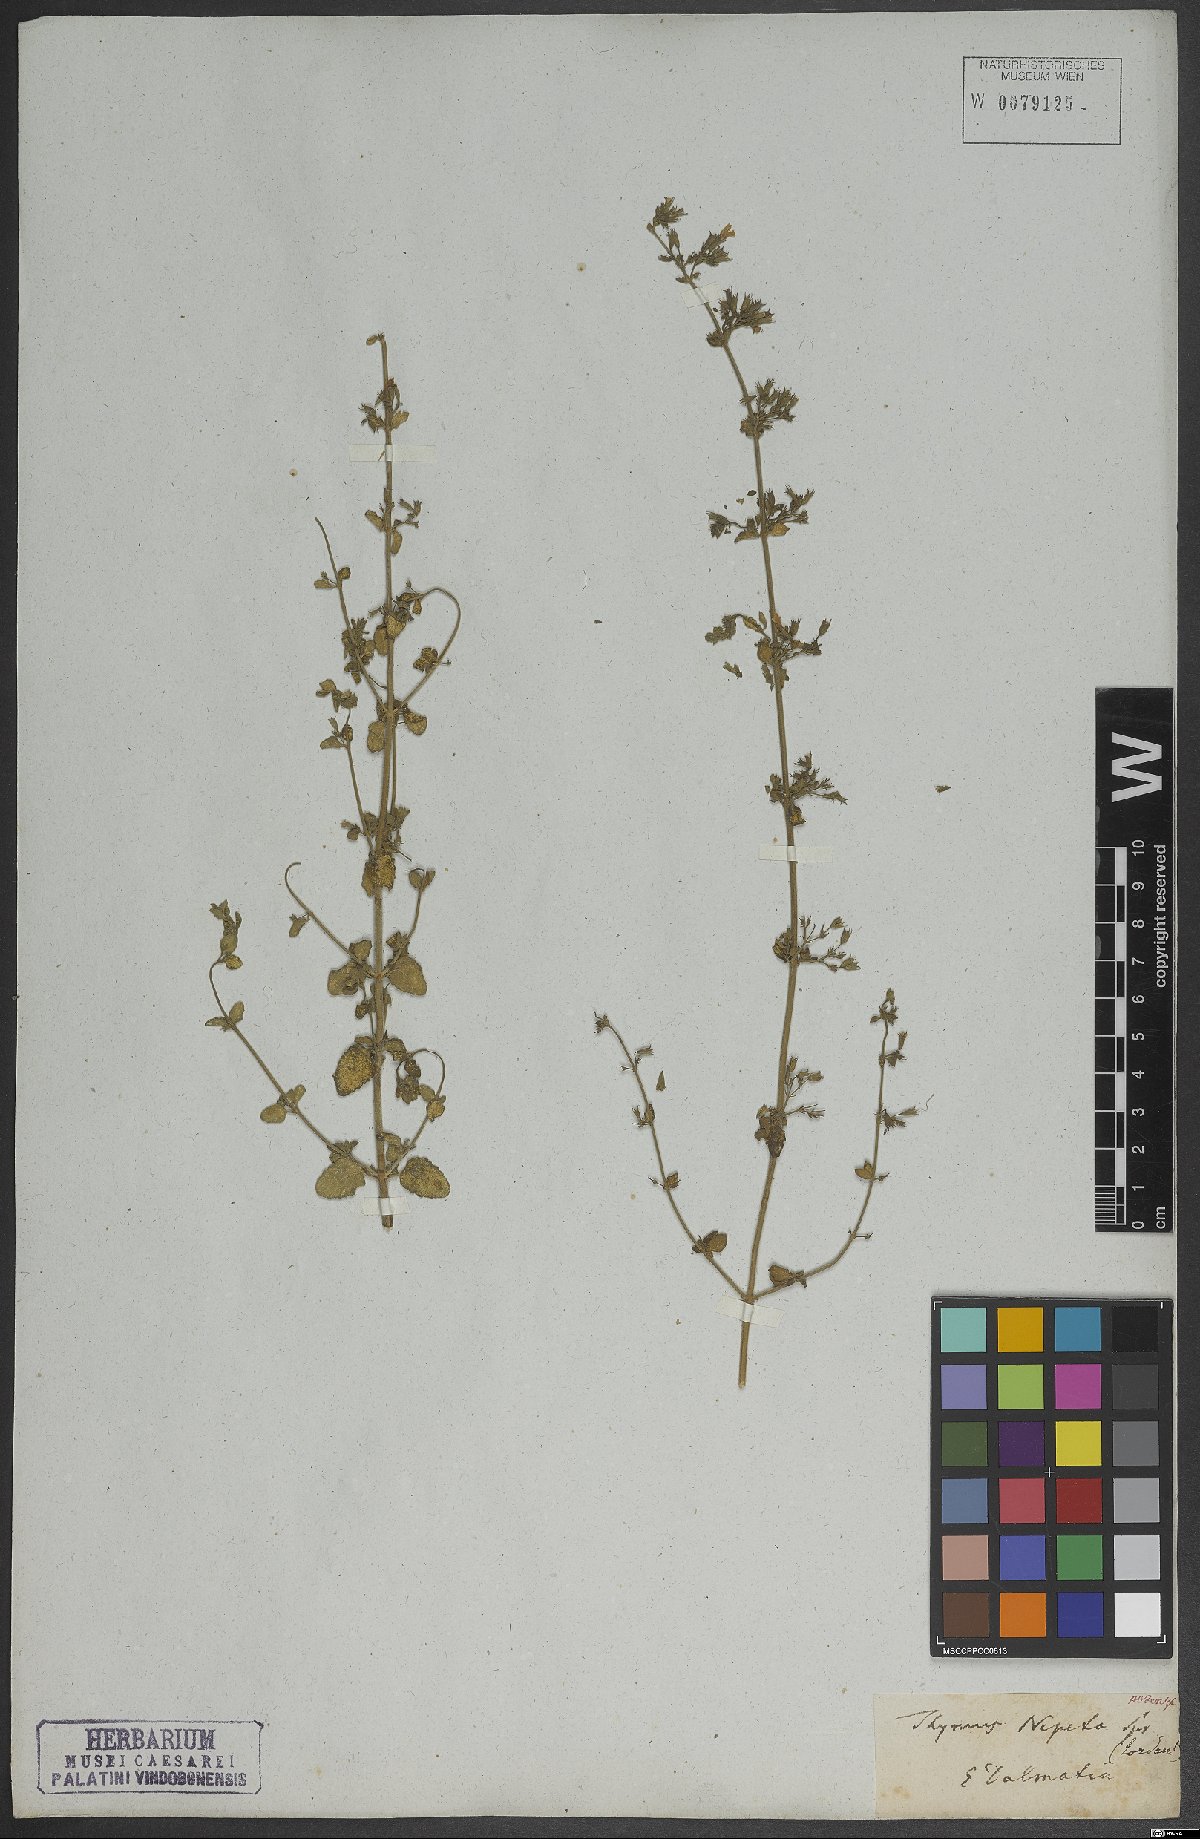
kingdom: Plantae
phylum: Tracheophyta
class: Magnoliopsida
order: Lamiales
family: Lamiaceae
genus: Clinopodium
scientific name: Clinopodium nepeta
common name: Lesser calamint
